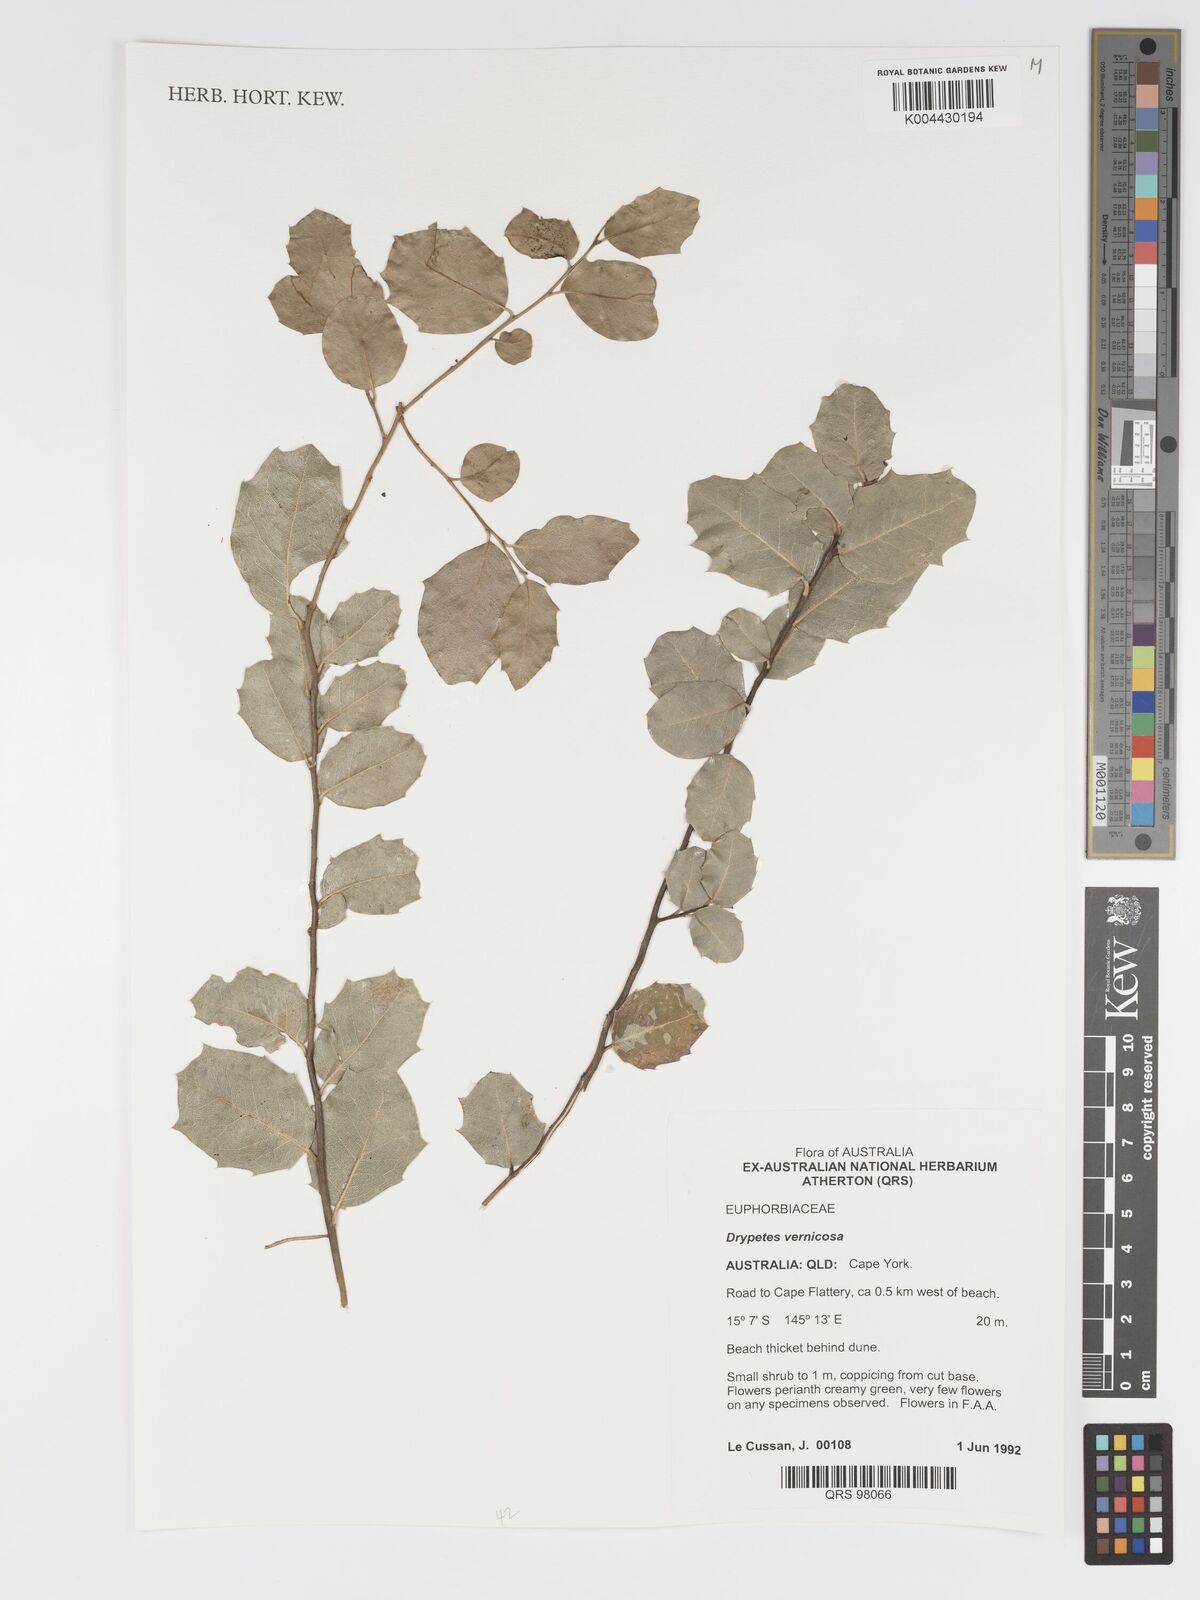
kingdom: Plantae
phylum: Tracheophyta
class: Magnoliopsida
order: Malpighiales
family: Putranjivaceae
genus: Drypetes
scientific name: Drypetes vernicosa
